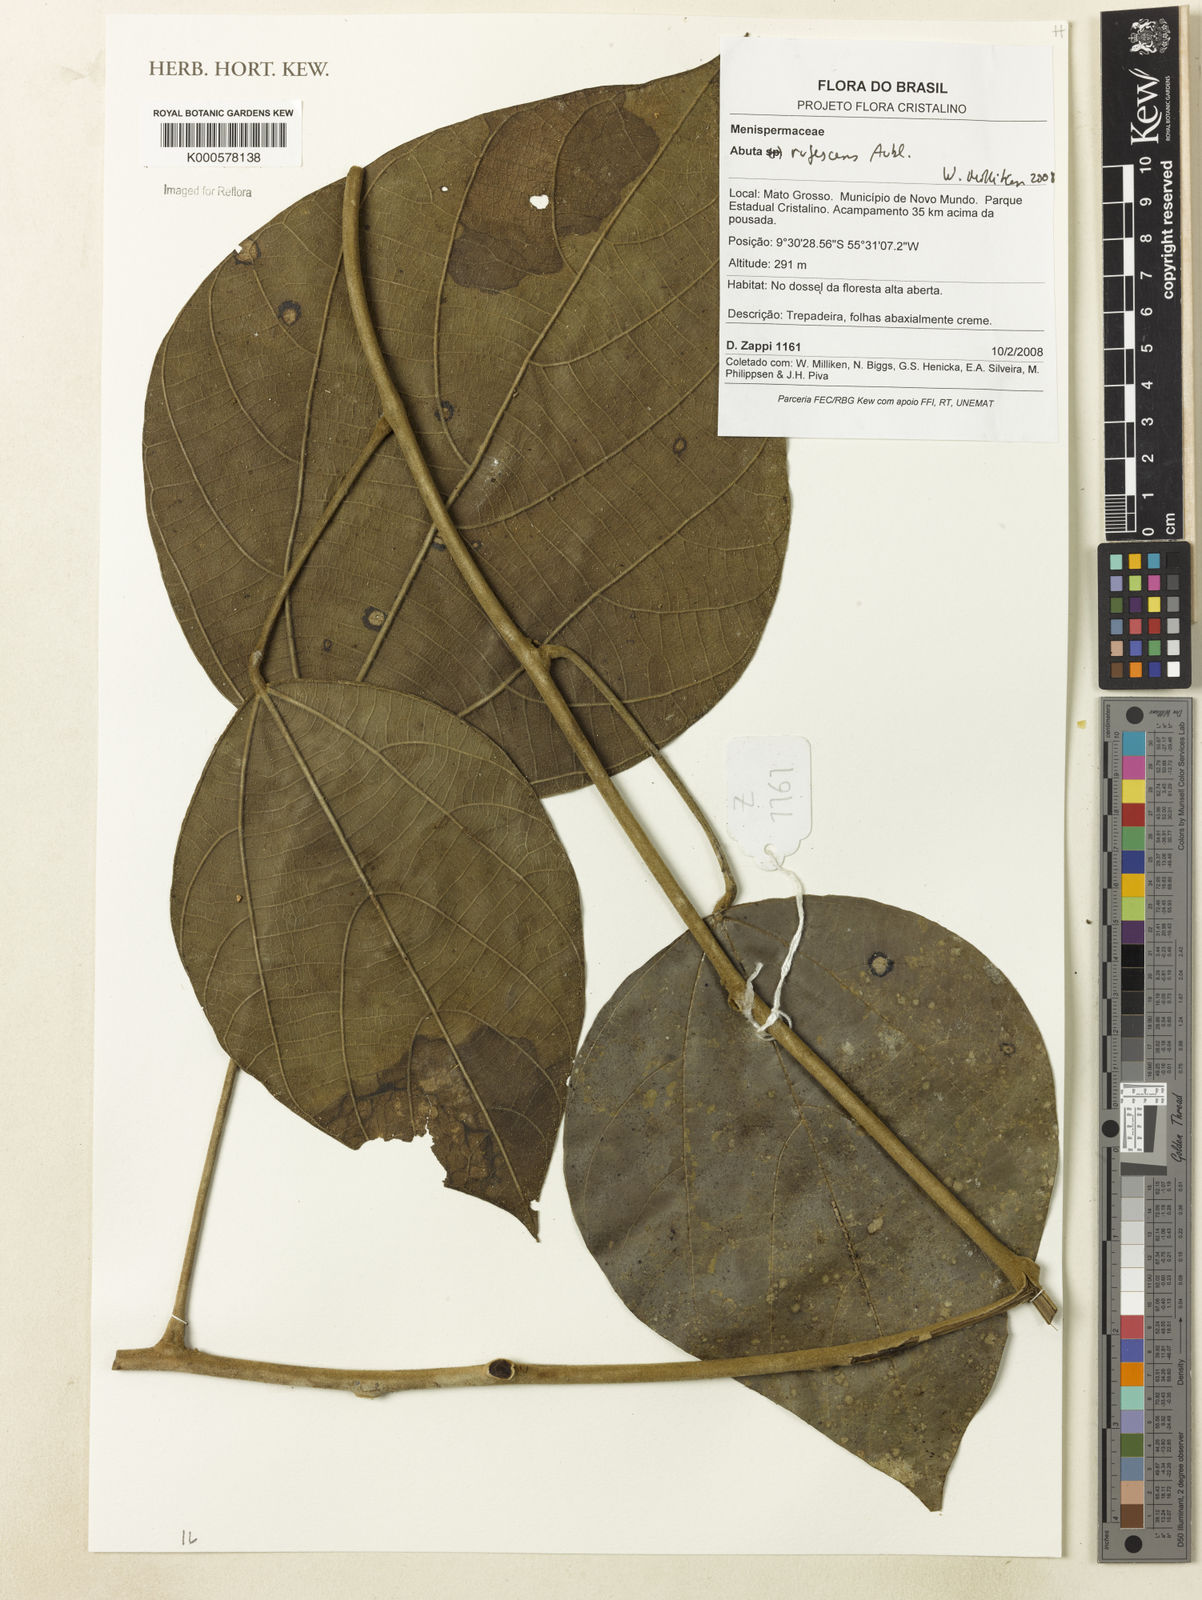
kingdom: Plantae
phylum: Tracheophyta
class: Magnoliopsida
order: Ranunculales
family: Menispermaceae
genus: Abuta
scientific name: Abuta rufescens
